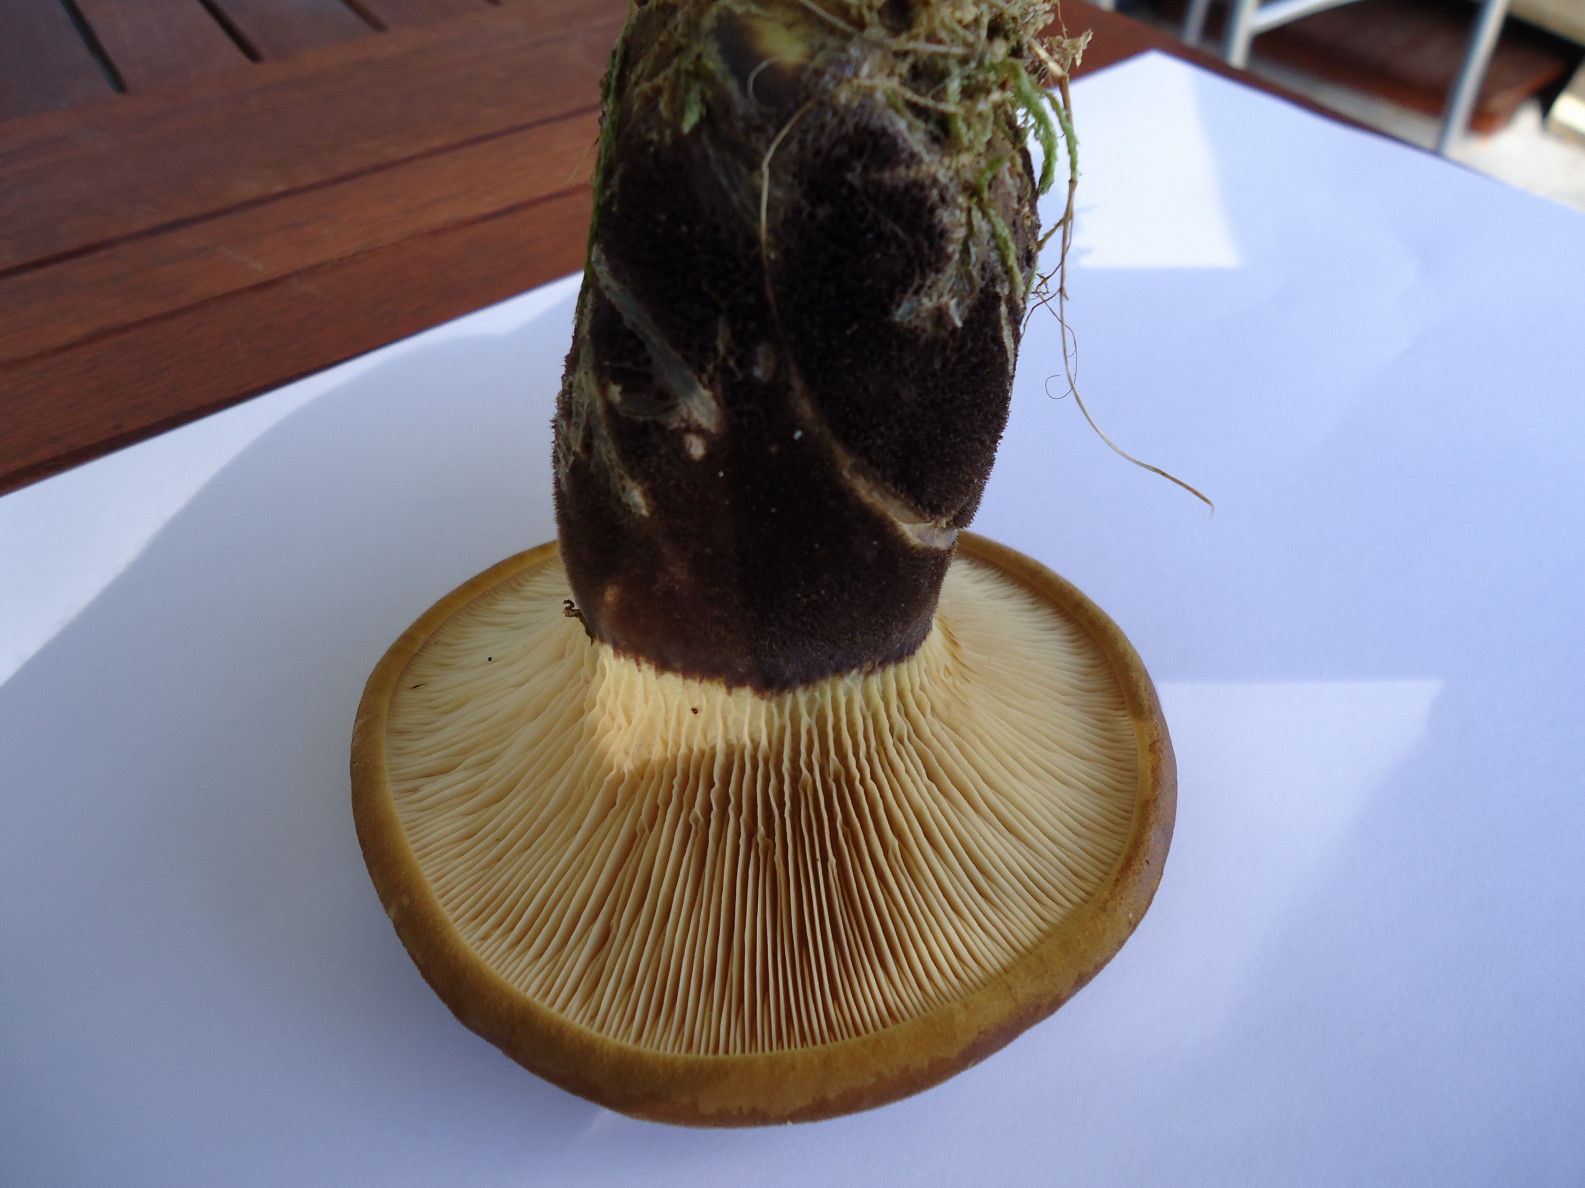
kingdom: Fungi
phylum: Basidiomycota
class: Agaricomycetes
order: Boletales
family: Tapinellaceae
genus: Tapinella
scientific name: Tapinella atrotomentosa
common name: sortfiltet viftesvamp
